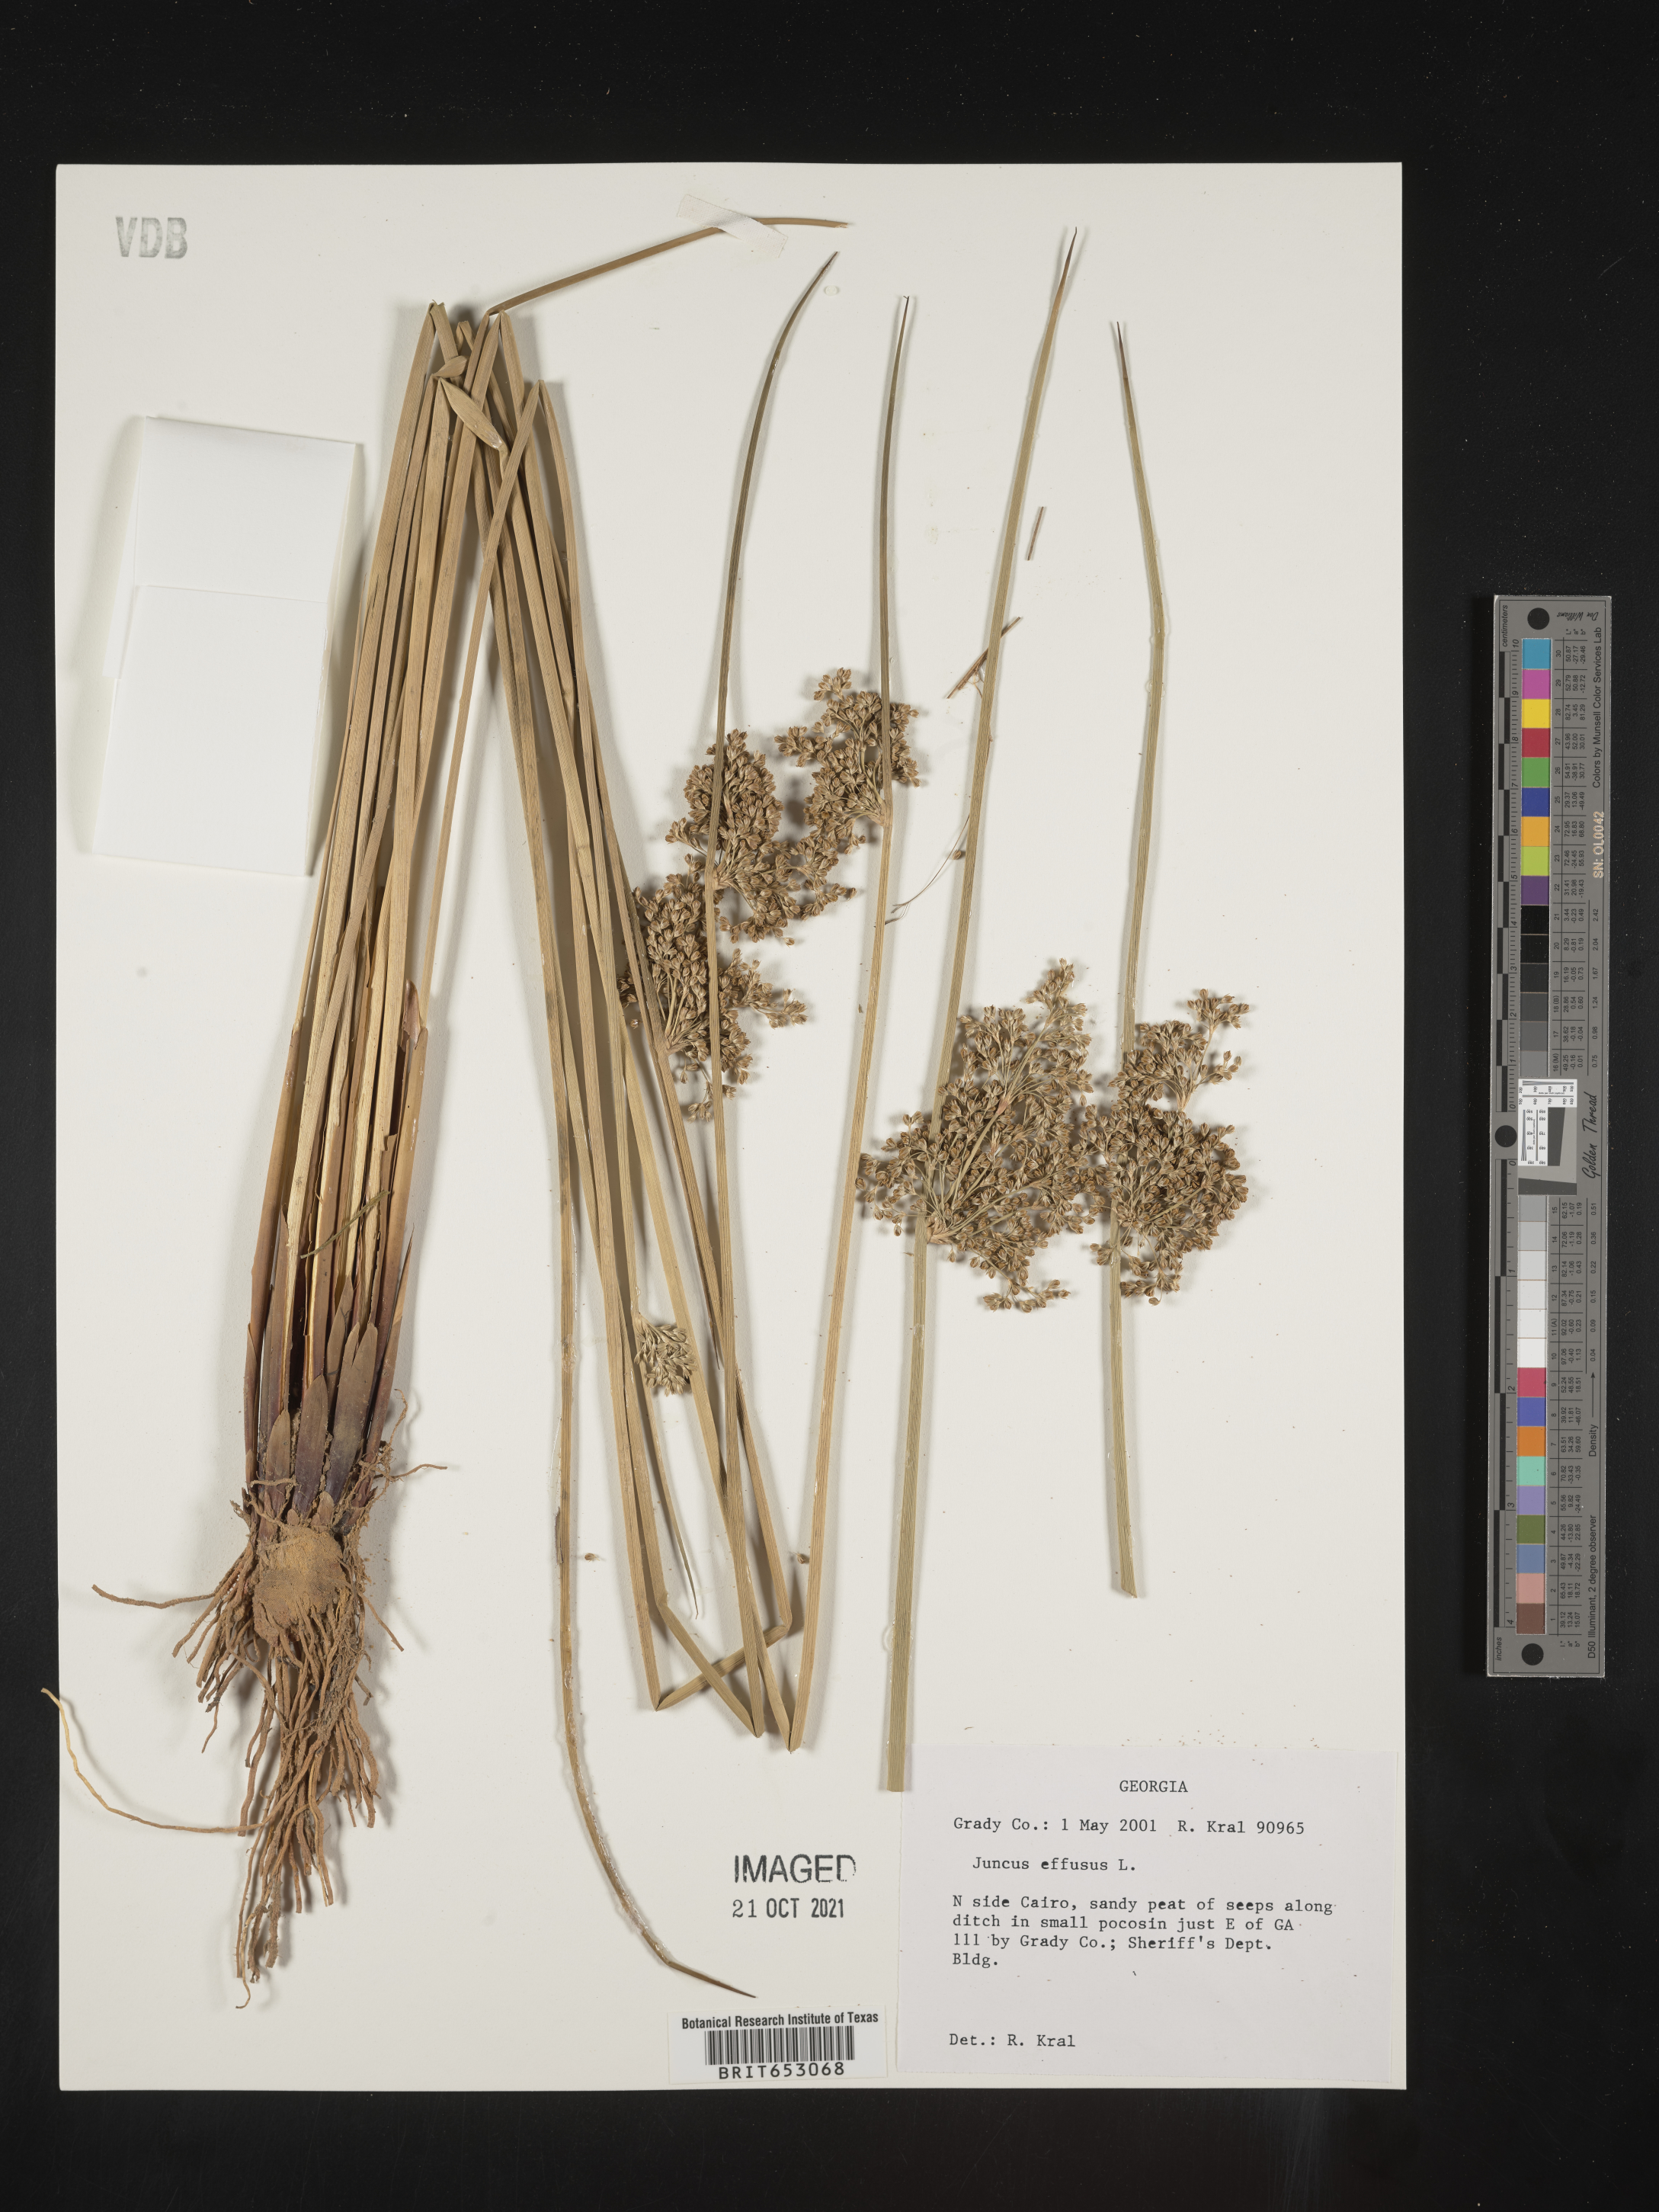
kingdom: Plantae
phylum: Tracheophyta
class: Liliopsida
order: Poales
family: Juncaceae
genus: Juncus
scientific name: Juncus effusus
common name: Soft rush
